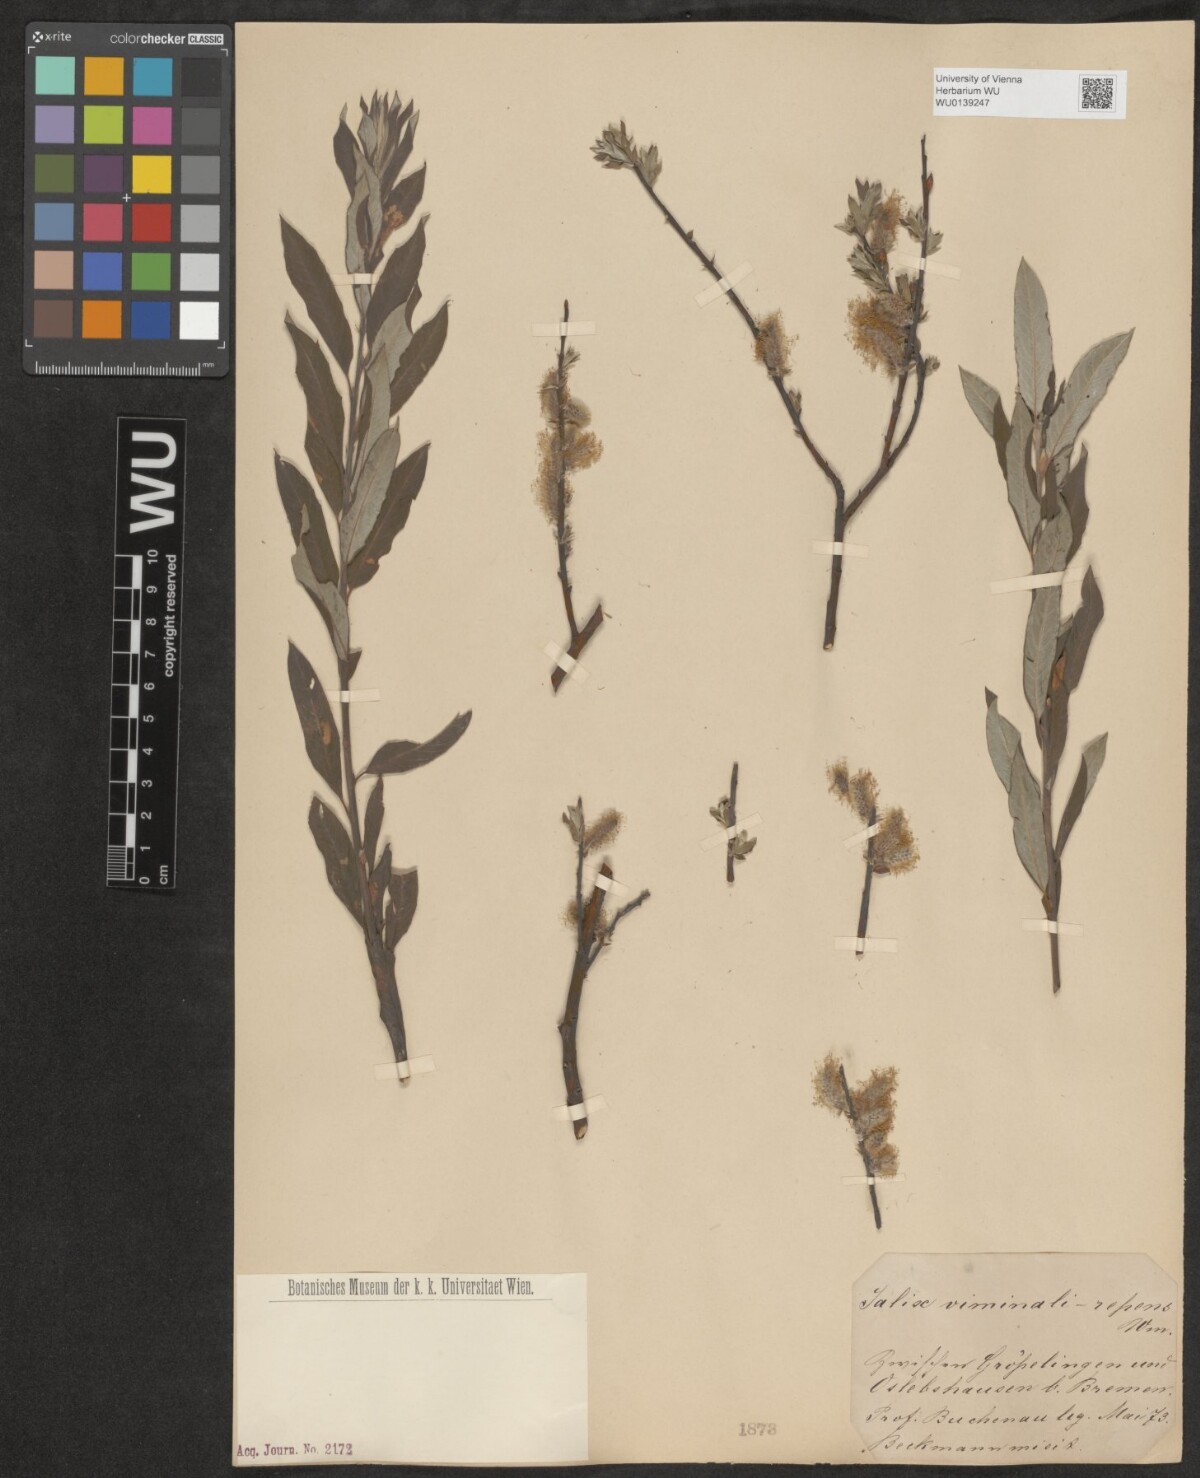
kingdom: Plantae
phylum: Tracheophyta
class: Magnoliopsida
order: Malpighiales
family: Salicaceae
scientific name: Salicaceae
